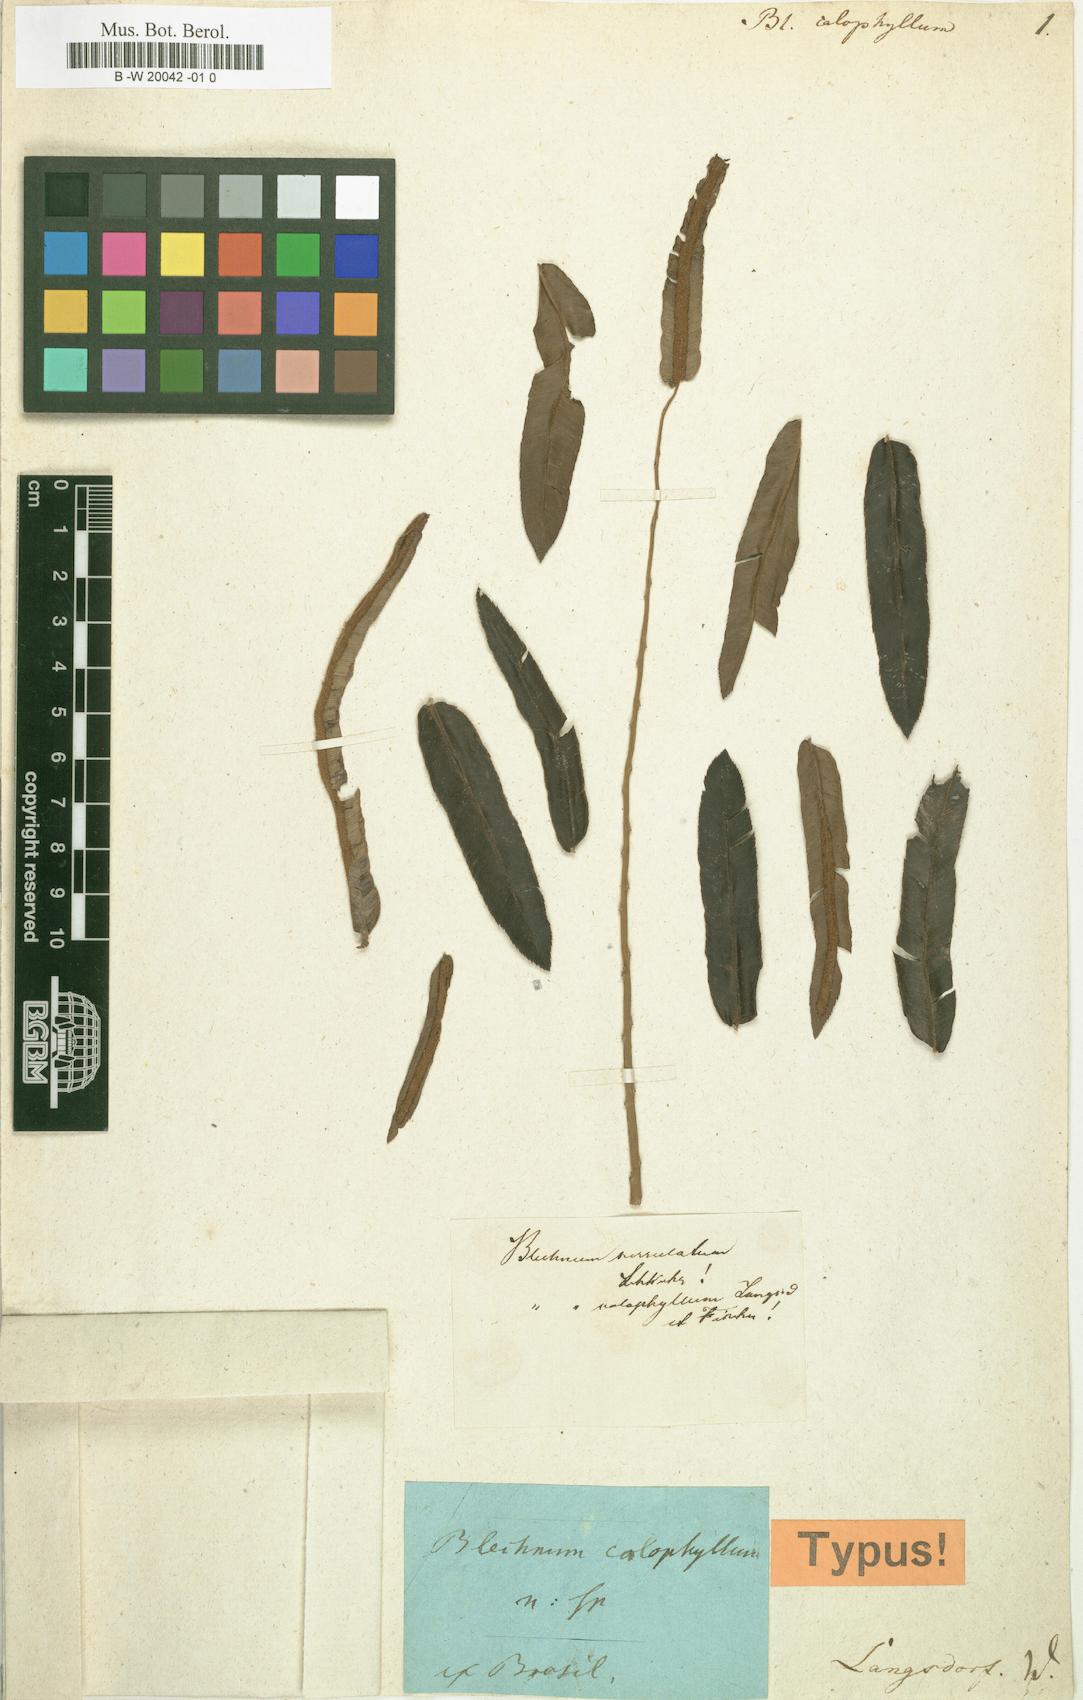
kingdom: Plantae
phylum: Tracheophyta
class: Polypodiopsida
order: Polypodiales
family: Blechnaceae
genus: Telmatoblechnum
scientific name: Telmatoblechnum indicum
